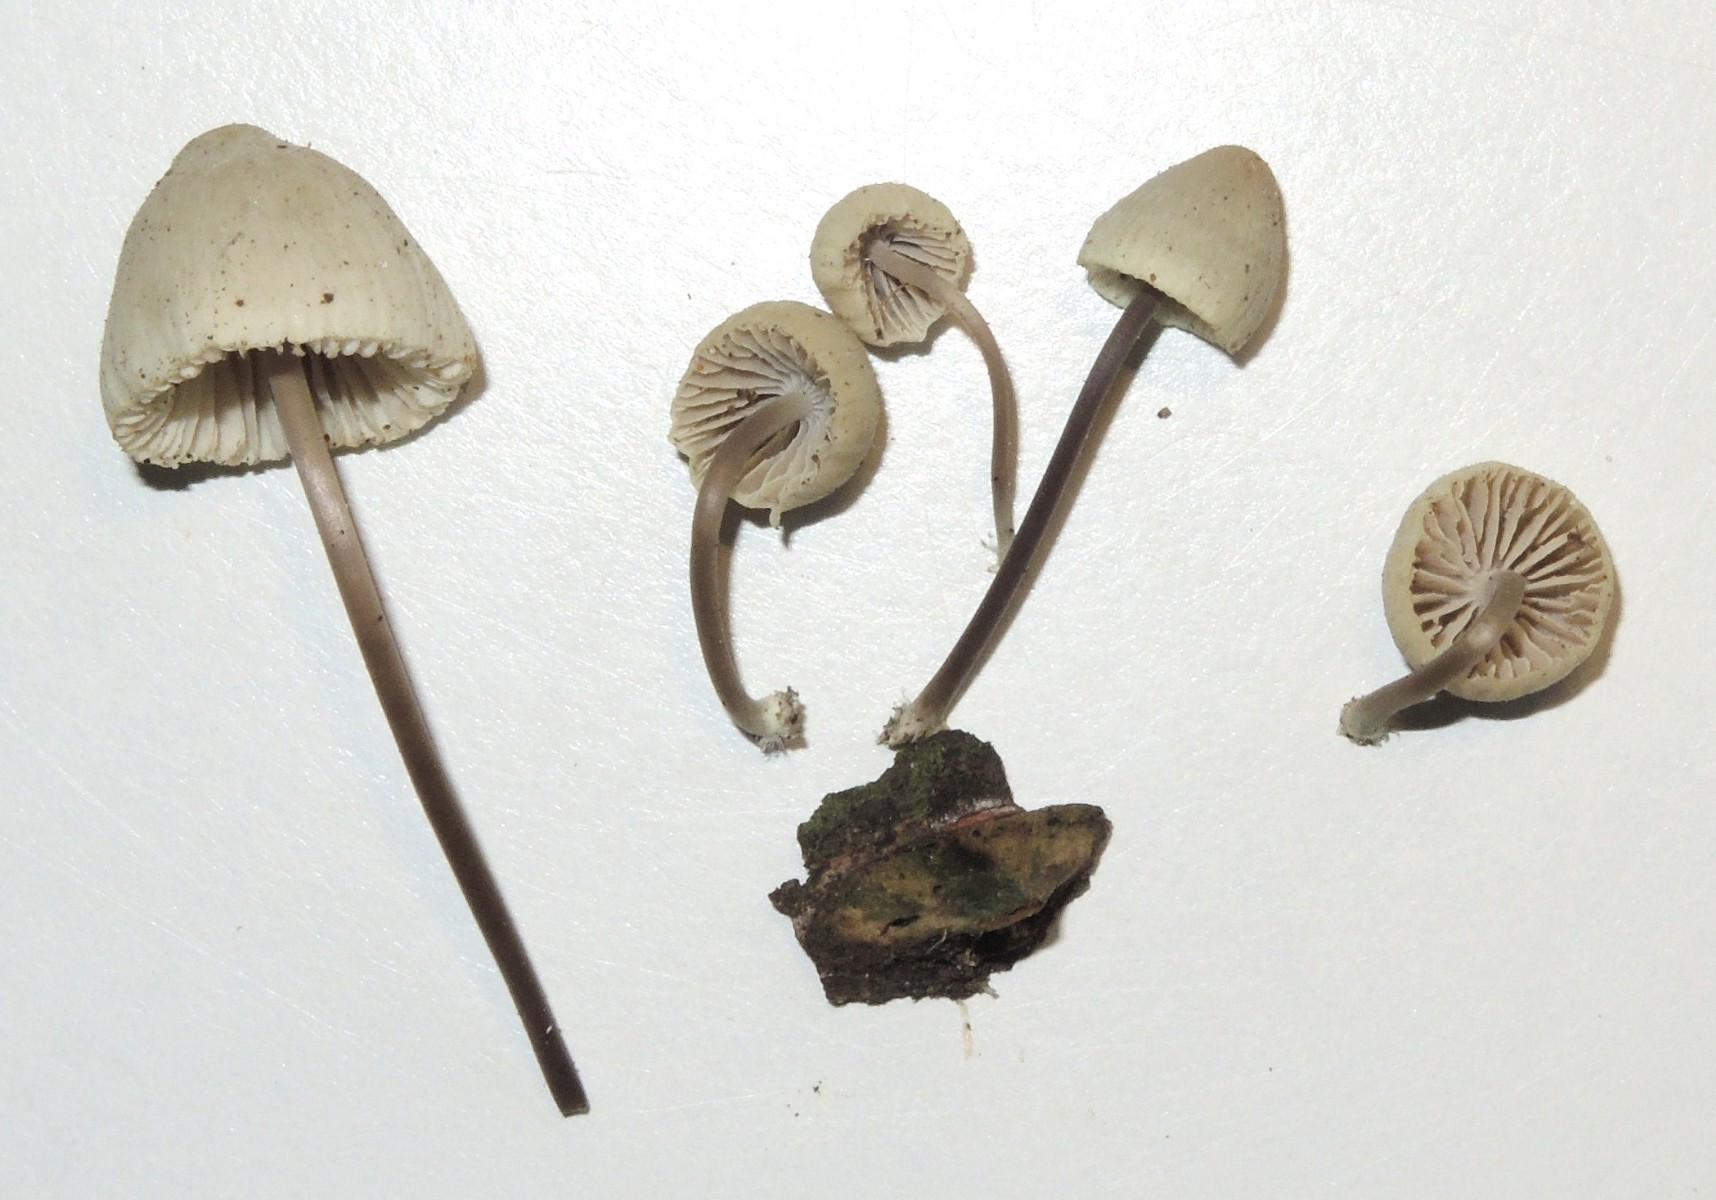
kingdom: Fungi
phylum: Basidiomycota
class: Agaricomycetes
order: Agaricales
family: Mycenaceae
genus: Mycena
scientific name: Mycena arcangeliana
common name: oliven-huesvamp
